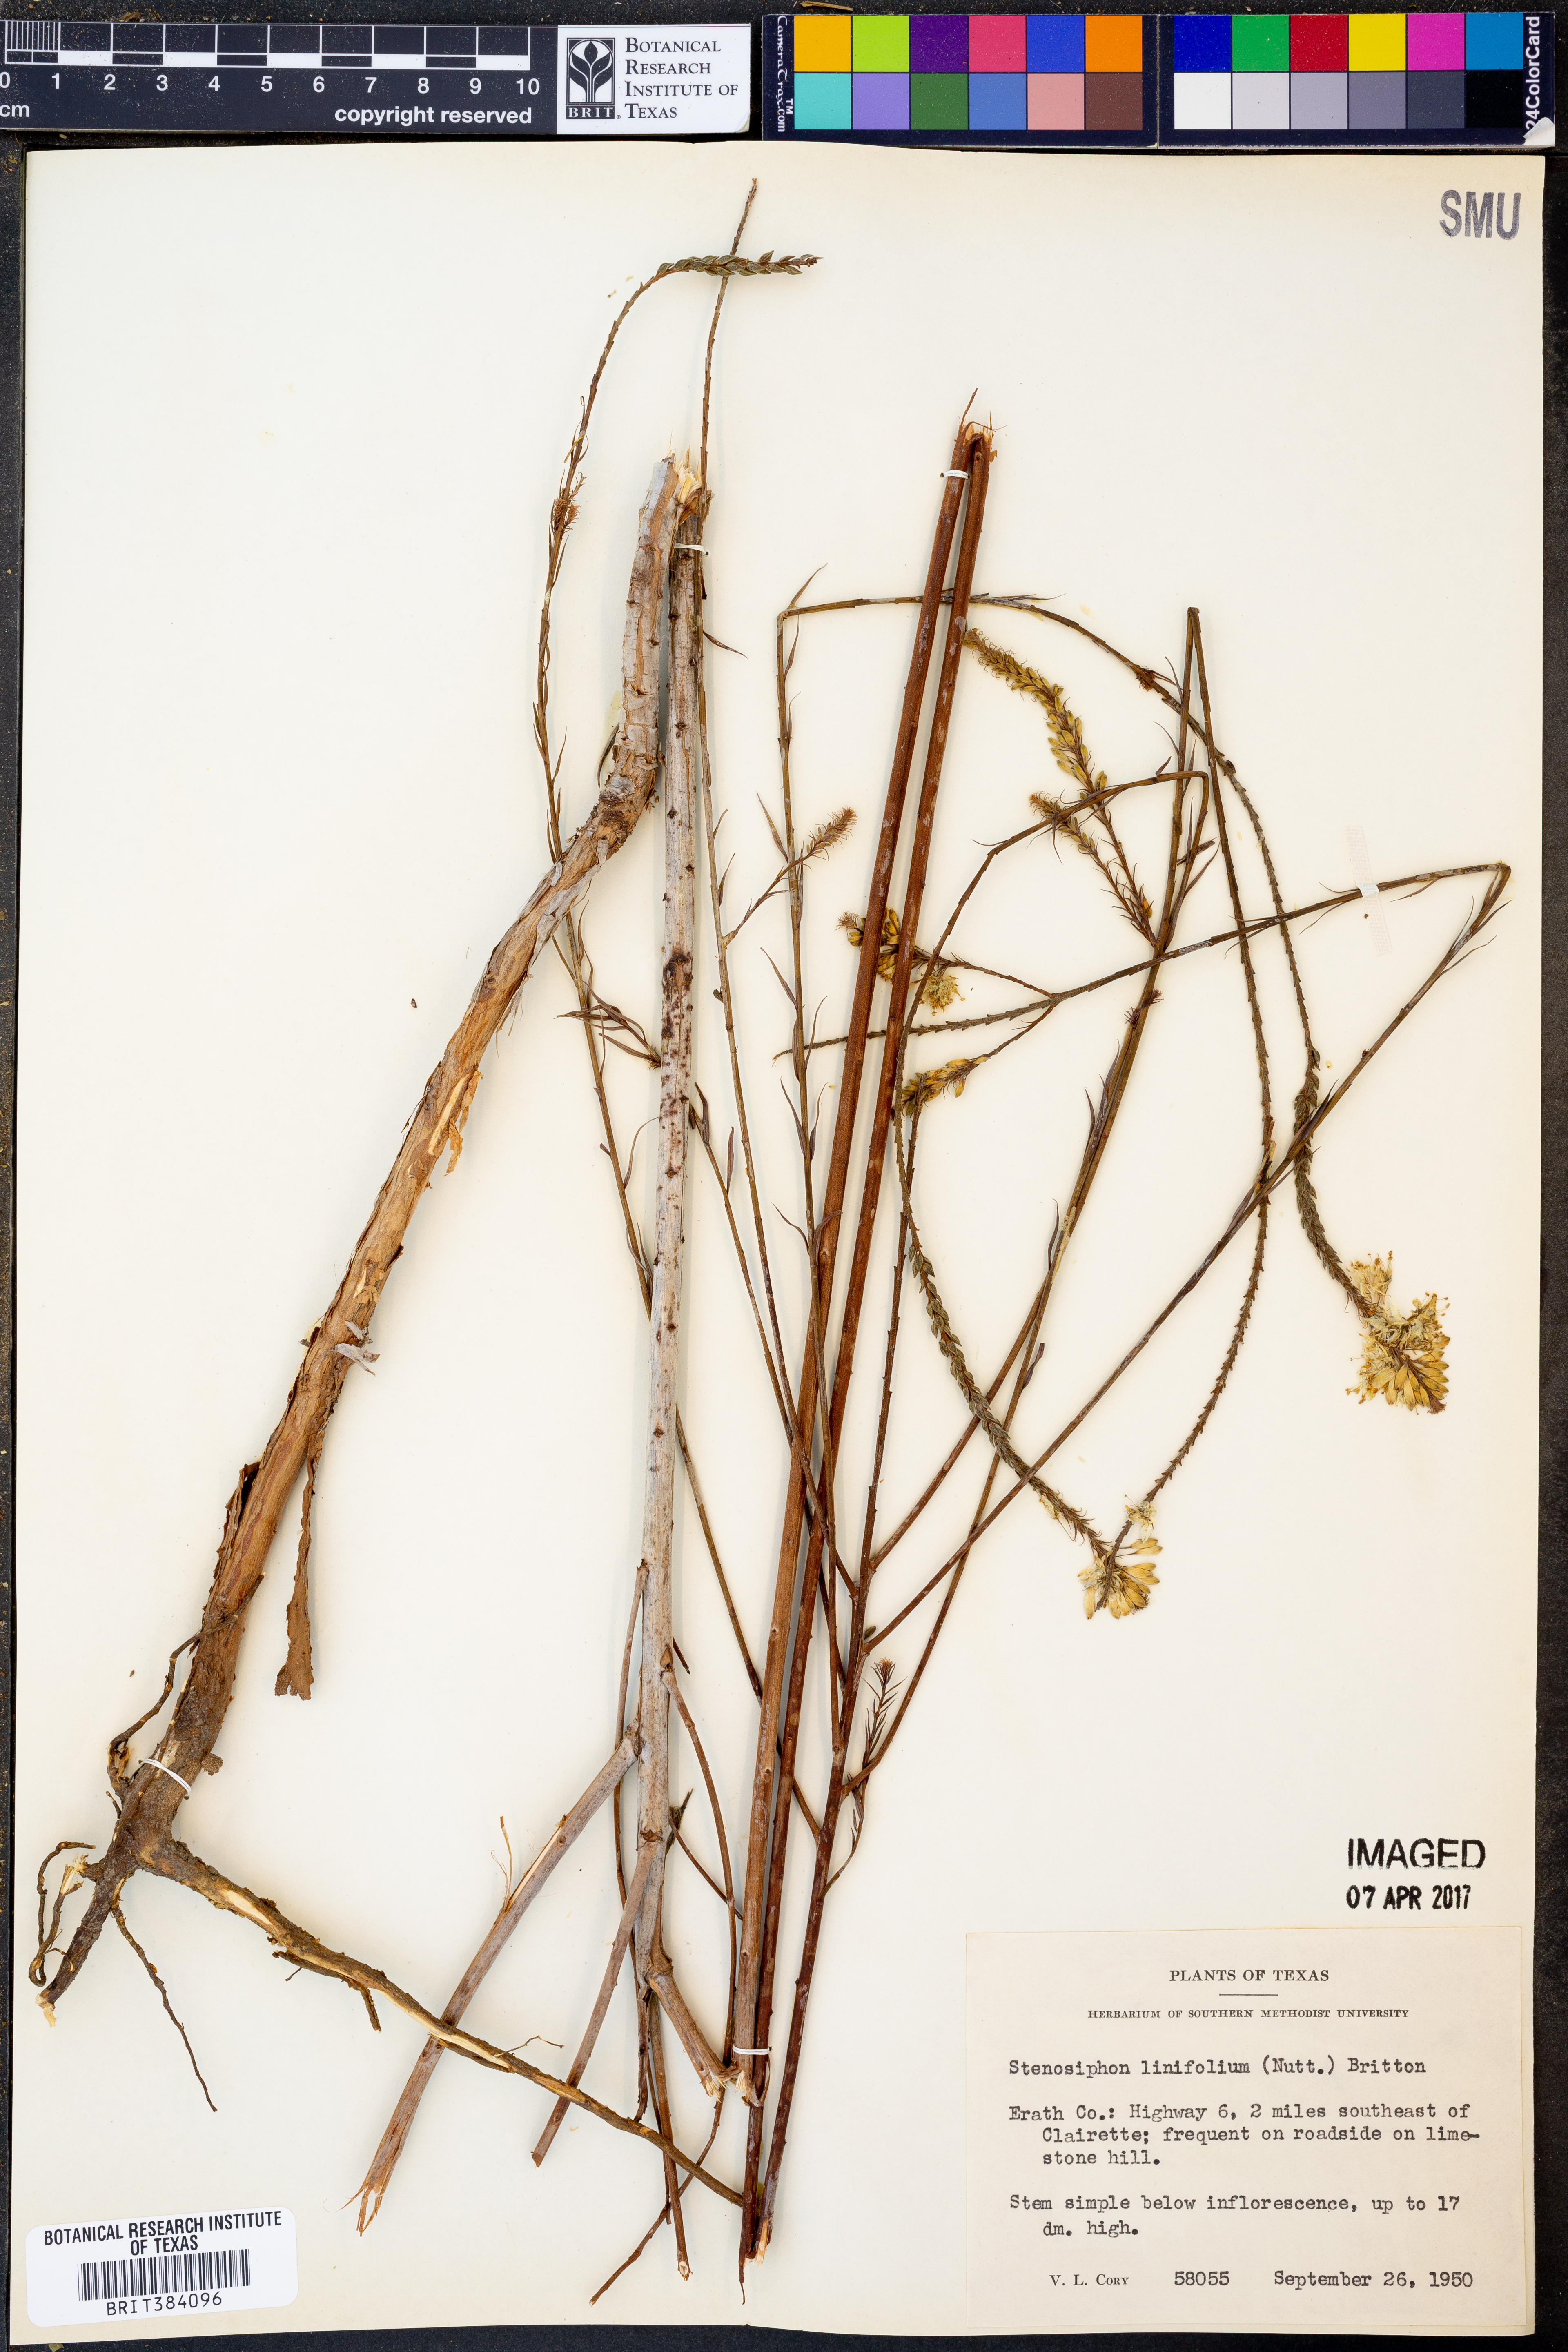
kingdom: Plantae
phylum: Tracheophyta
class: Magnoliopsida
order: Myrtales
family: Onagraceae
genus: Oenothera
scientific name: Oenothera glaucifolia
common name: False gaura
